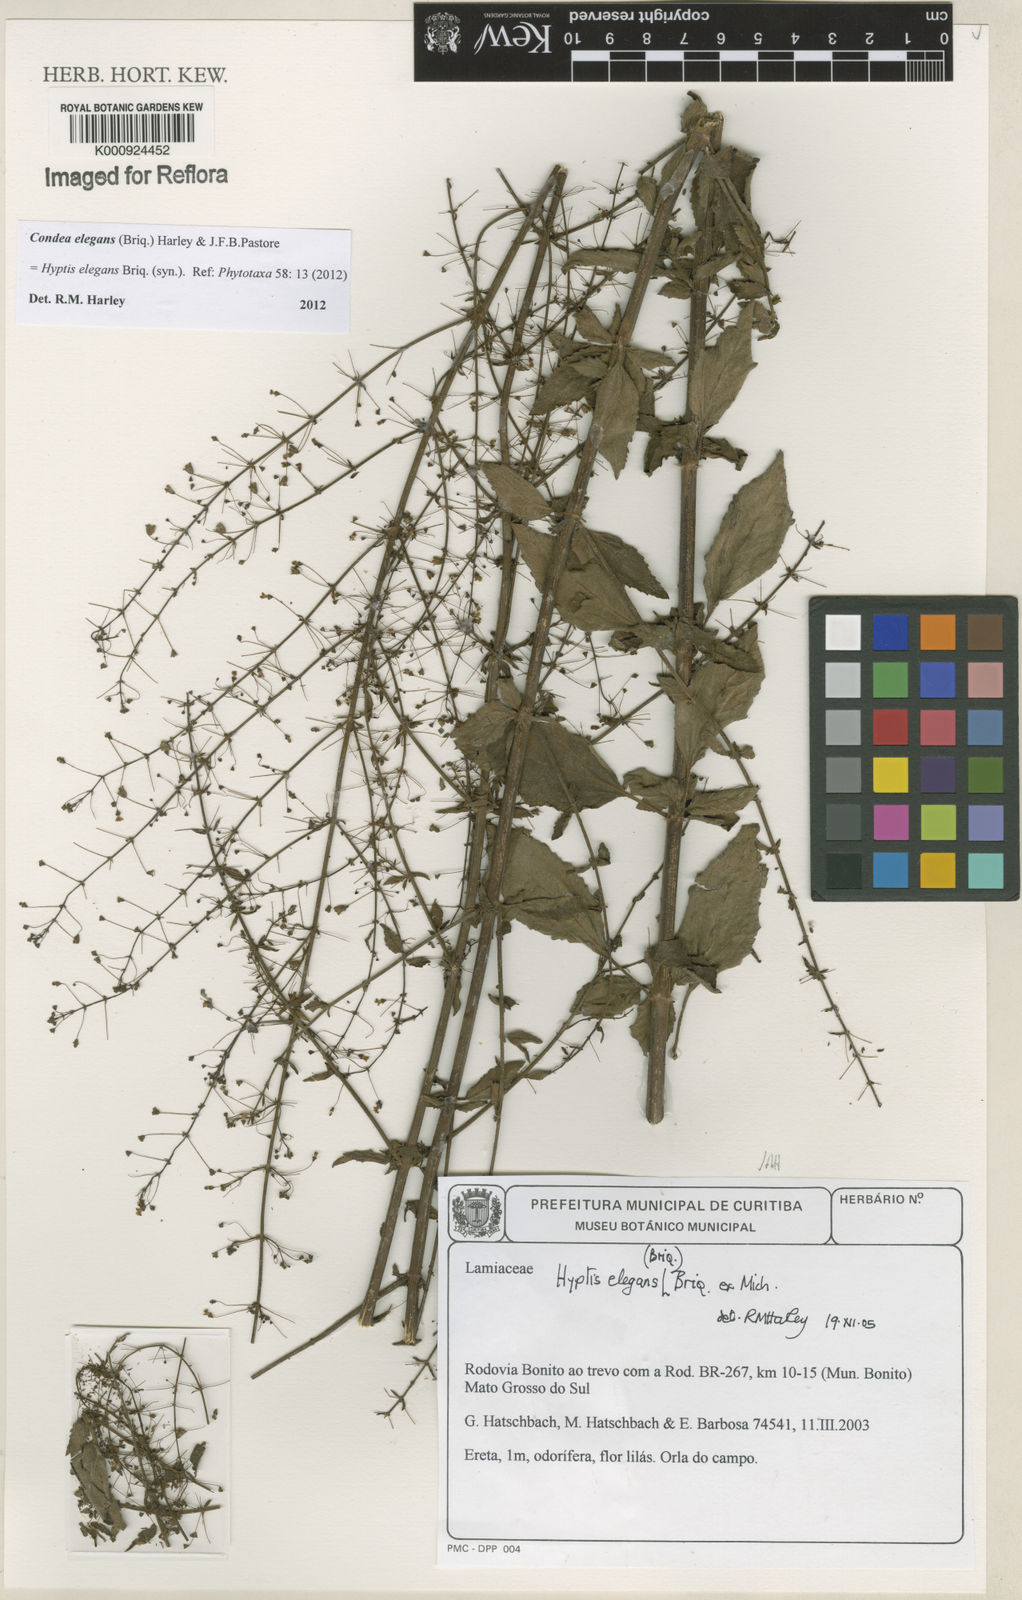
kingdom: Plantae
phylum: Tracheophyta
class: Magnoliopsida
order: Lamiales
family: Lamiaceae
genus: Condea
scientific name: Condea elegans
